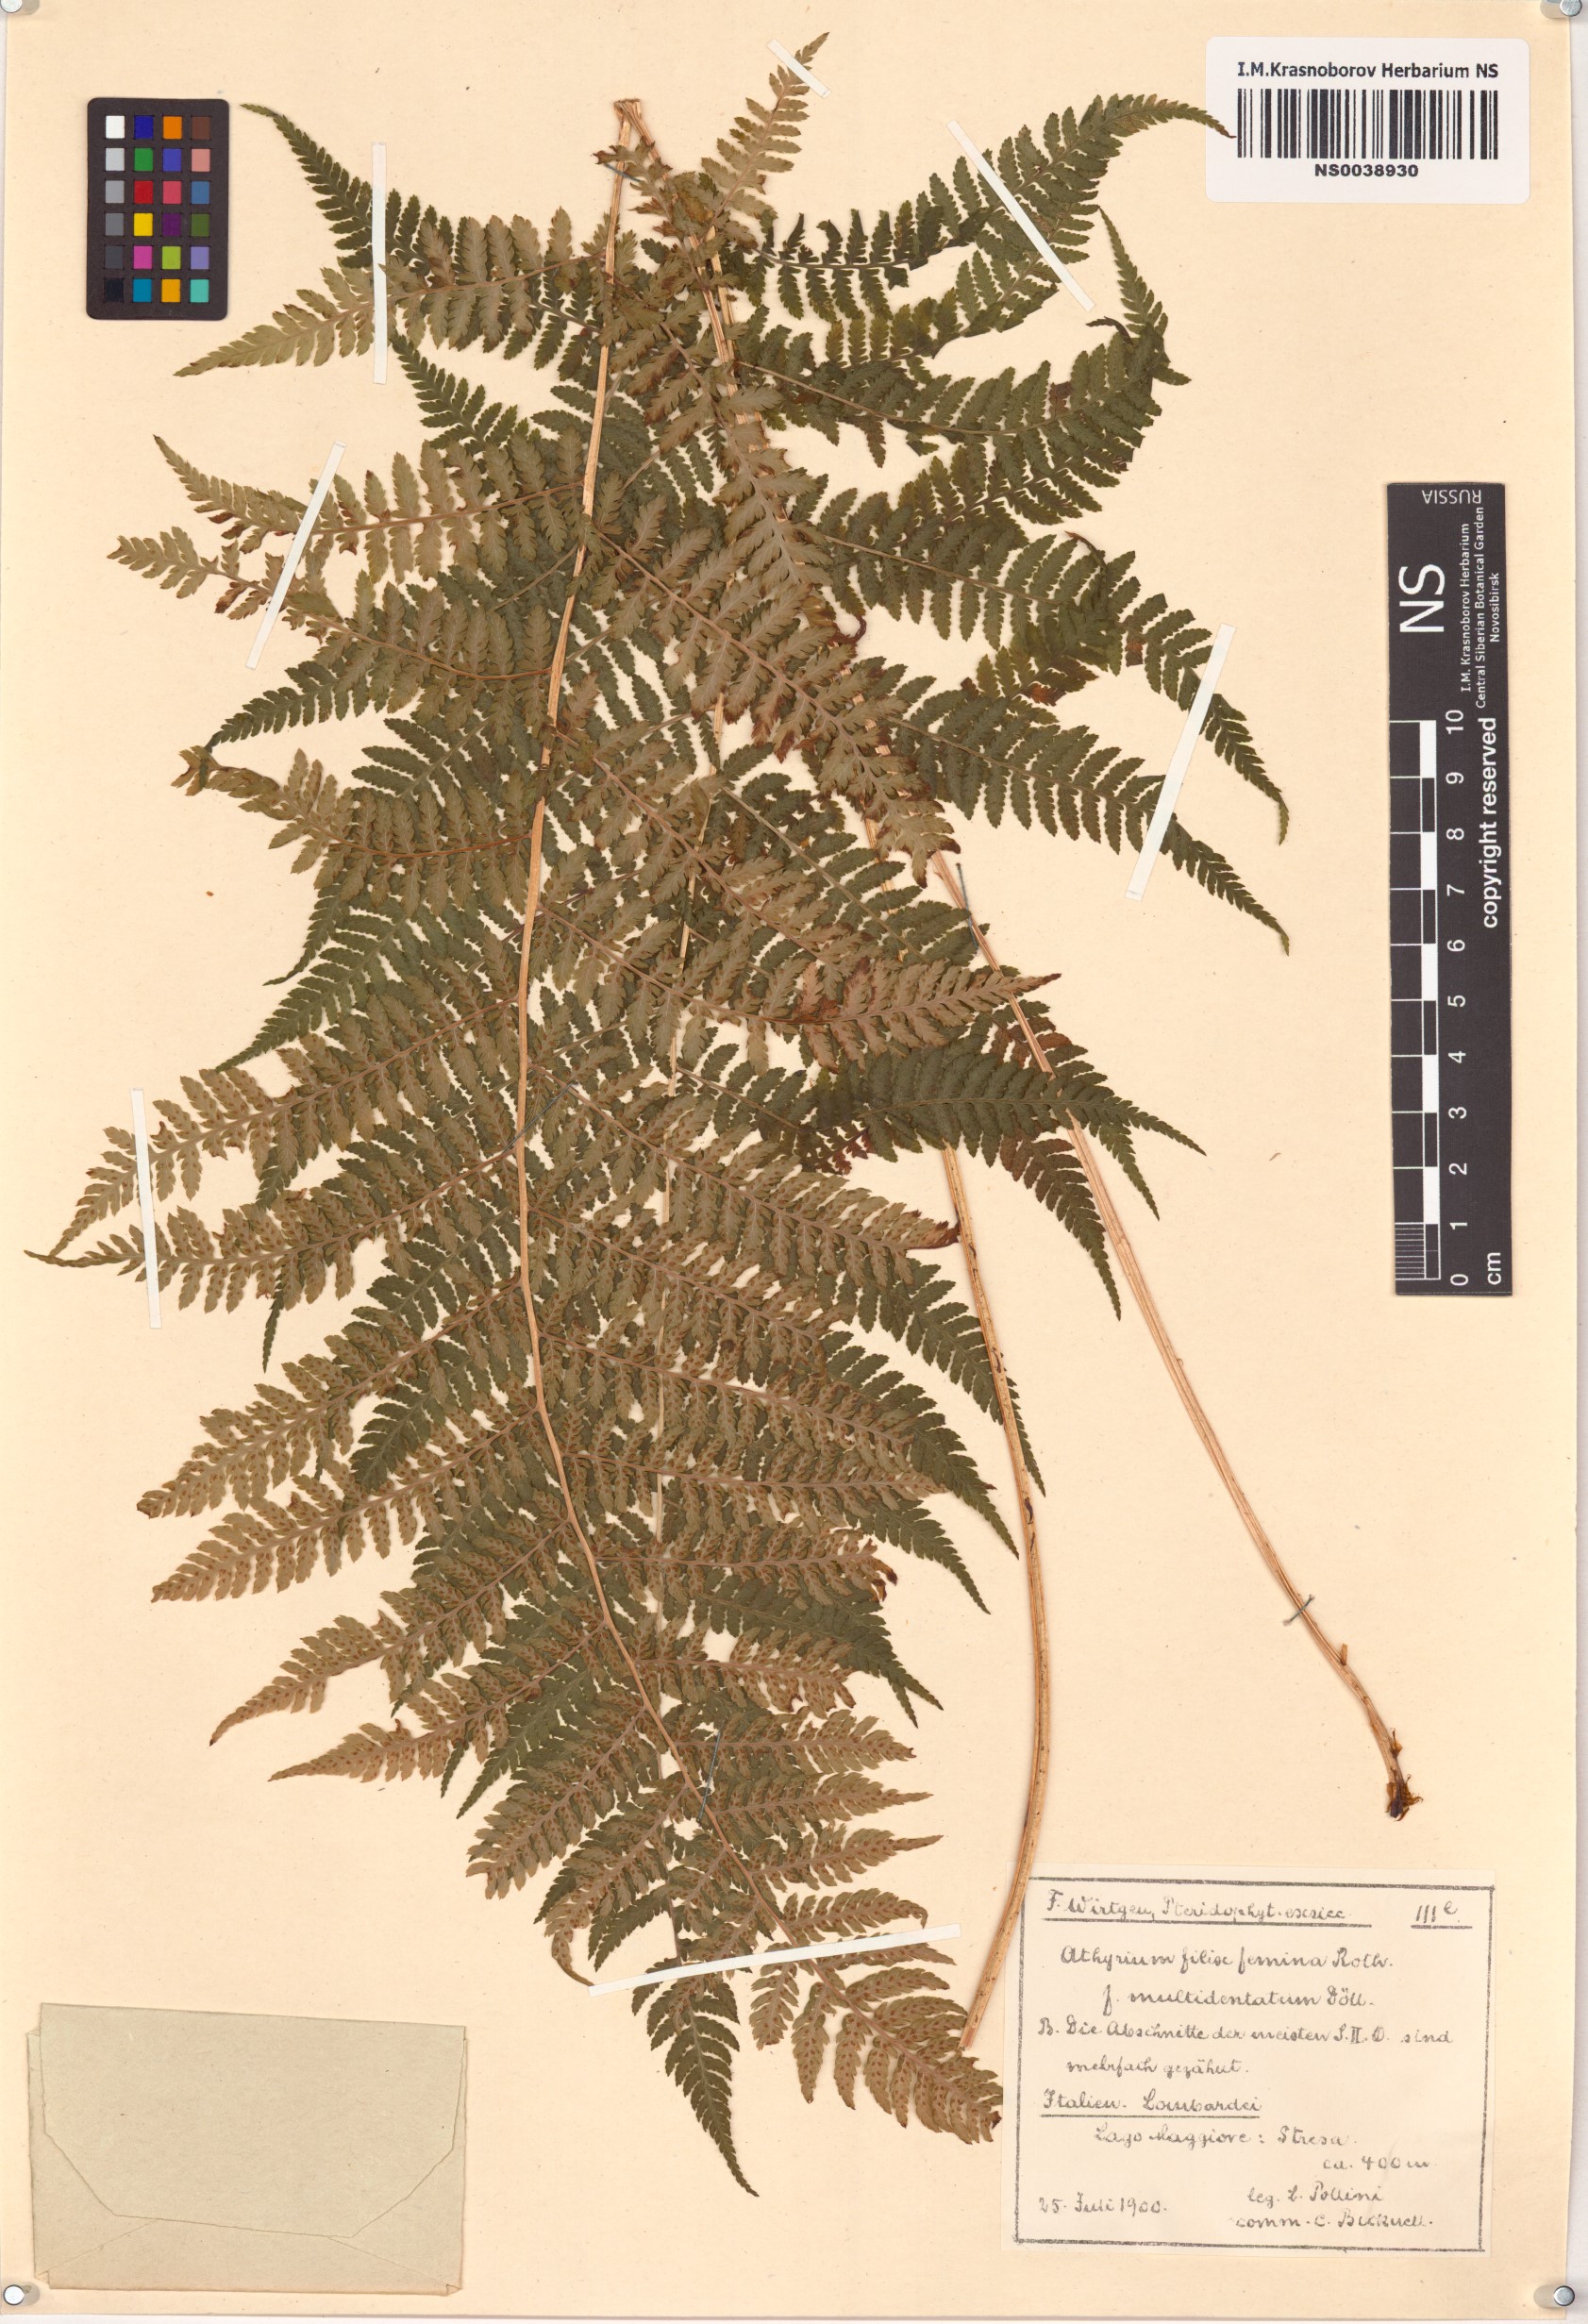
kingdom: Plantae
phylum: Tracheophyta
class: Polypodiopsida
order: Polypodiales
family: Athyriaceae
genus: Athyrium
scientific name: Athyrium filix-femina
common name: Lady fern
